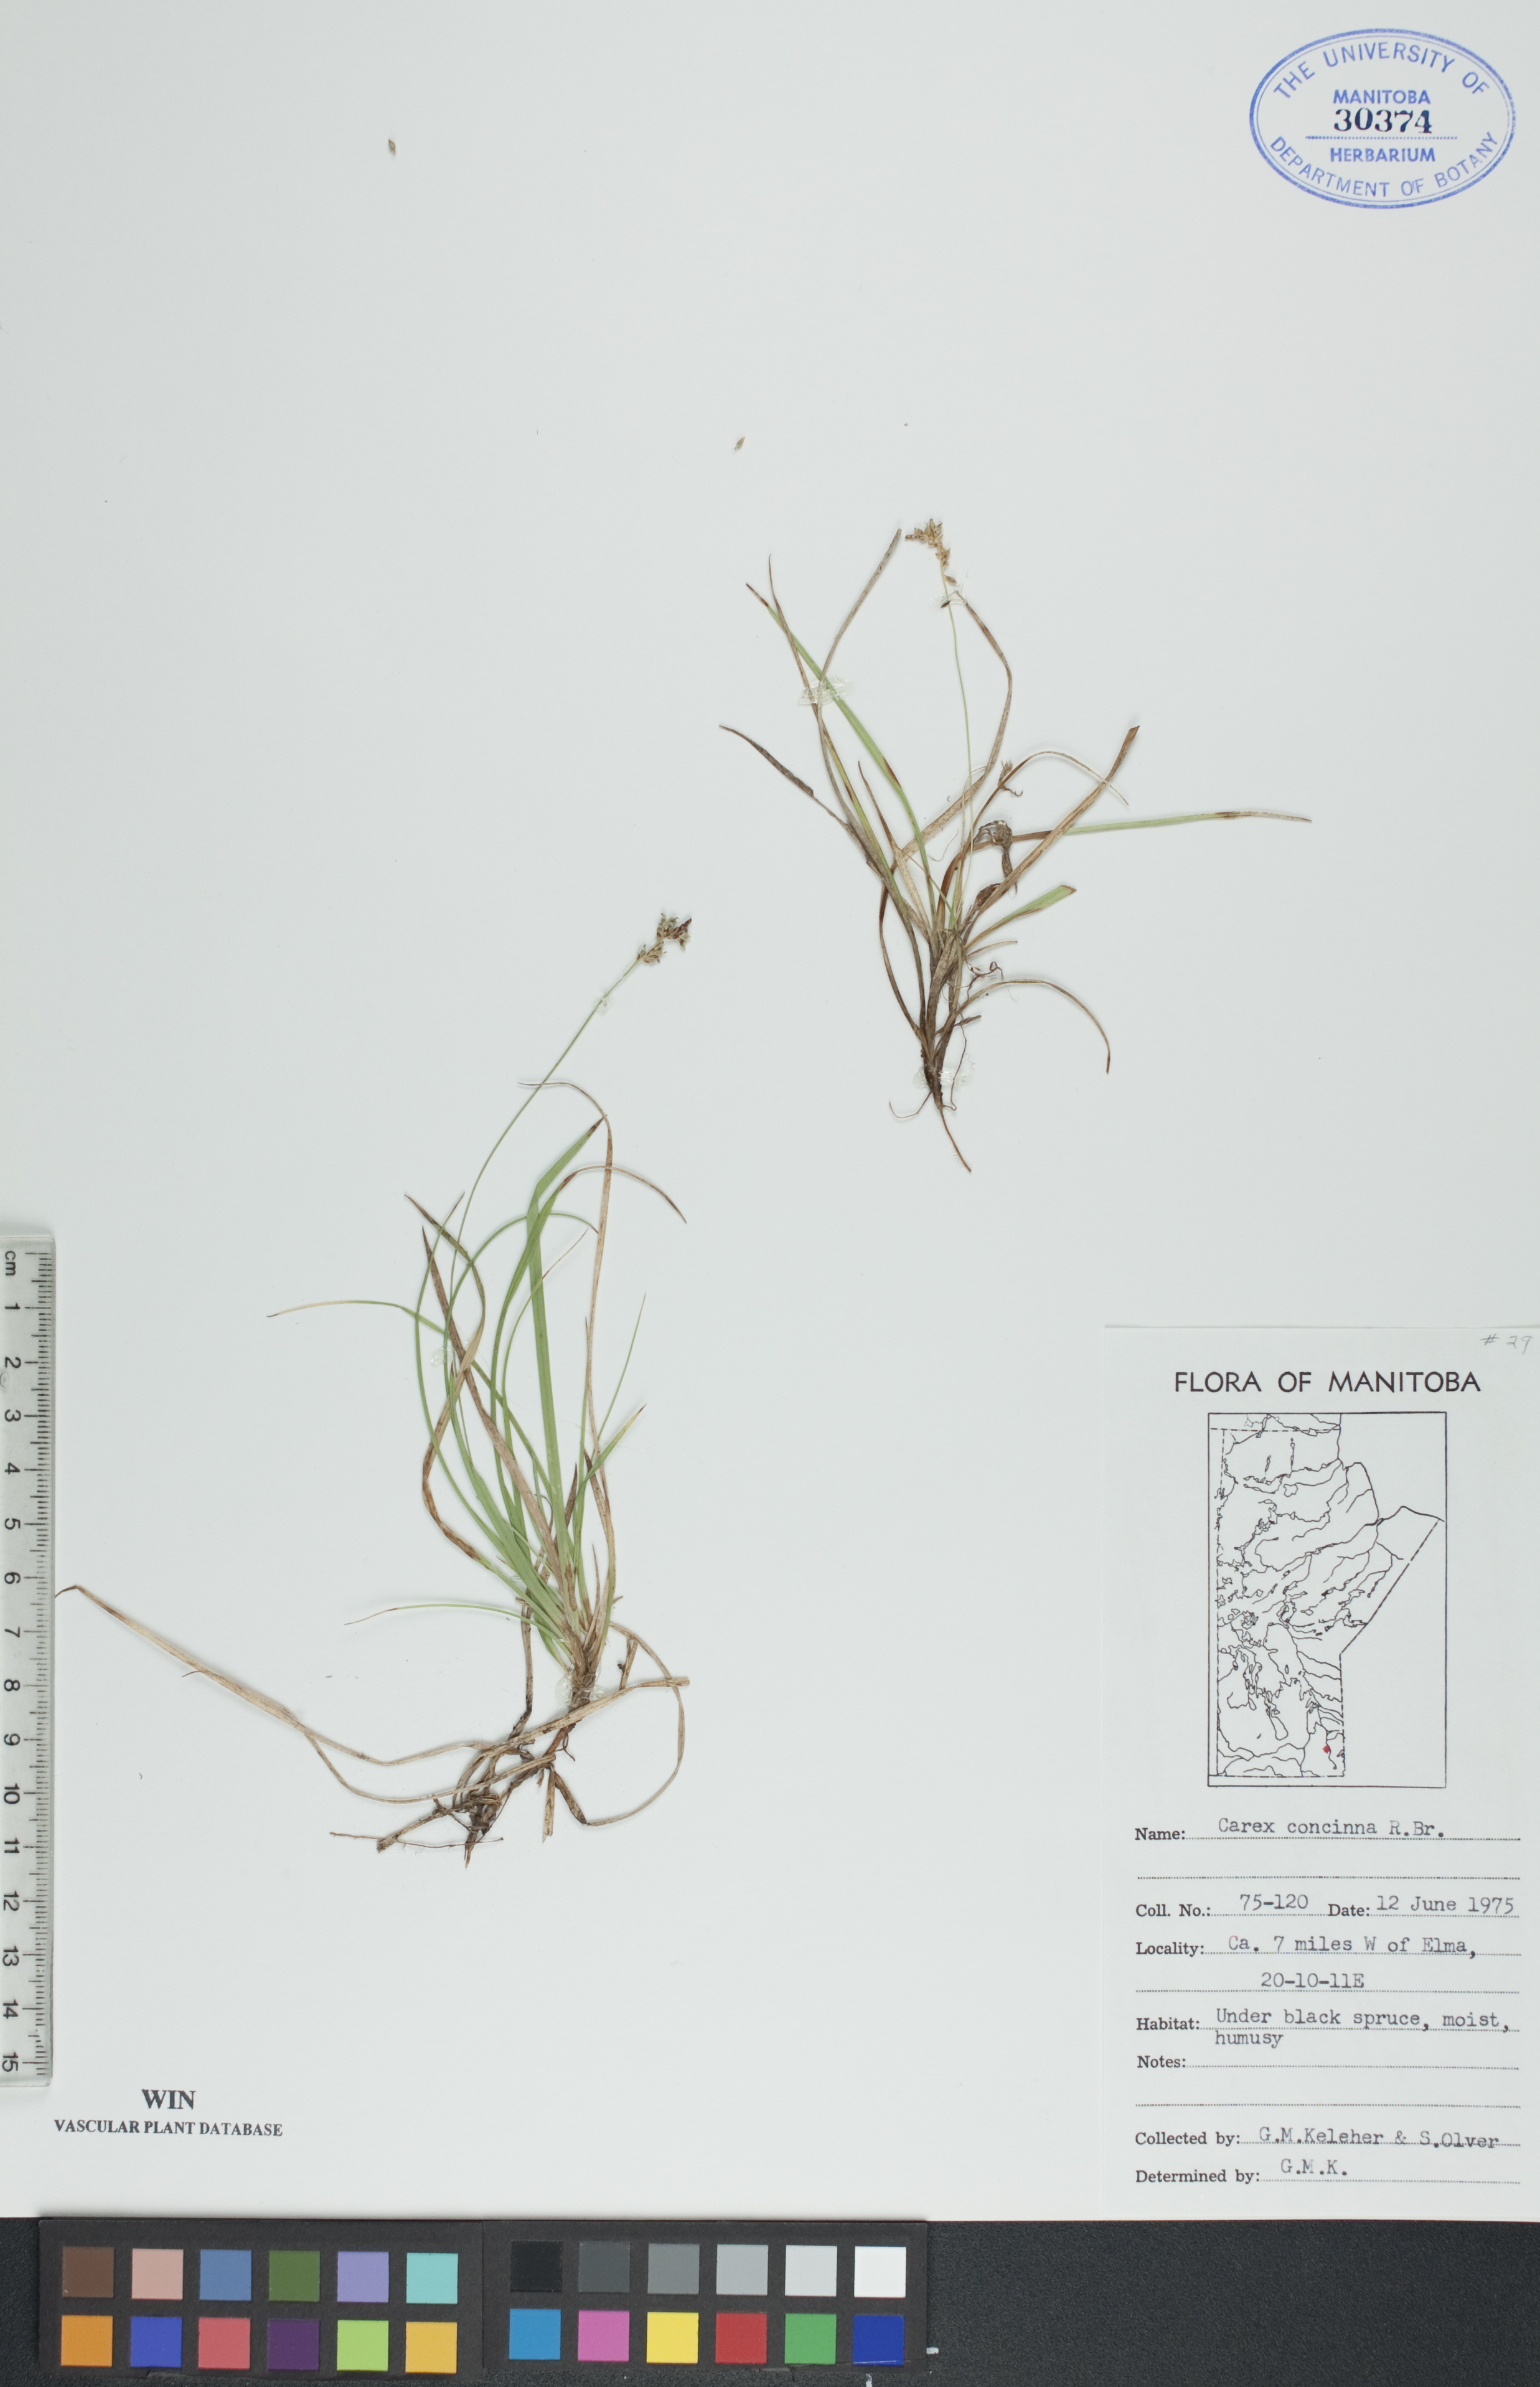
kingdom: Plantae
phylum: Tracheophyta
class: Liliopsida
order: Poales
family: Cyperaceae
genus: Carex
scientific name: Carex concinna
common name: Beautiful sedge
